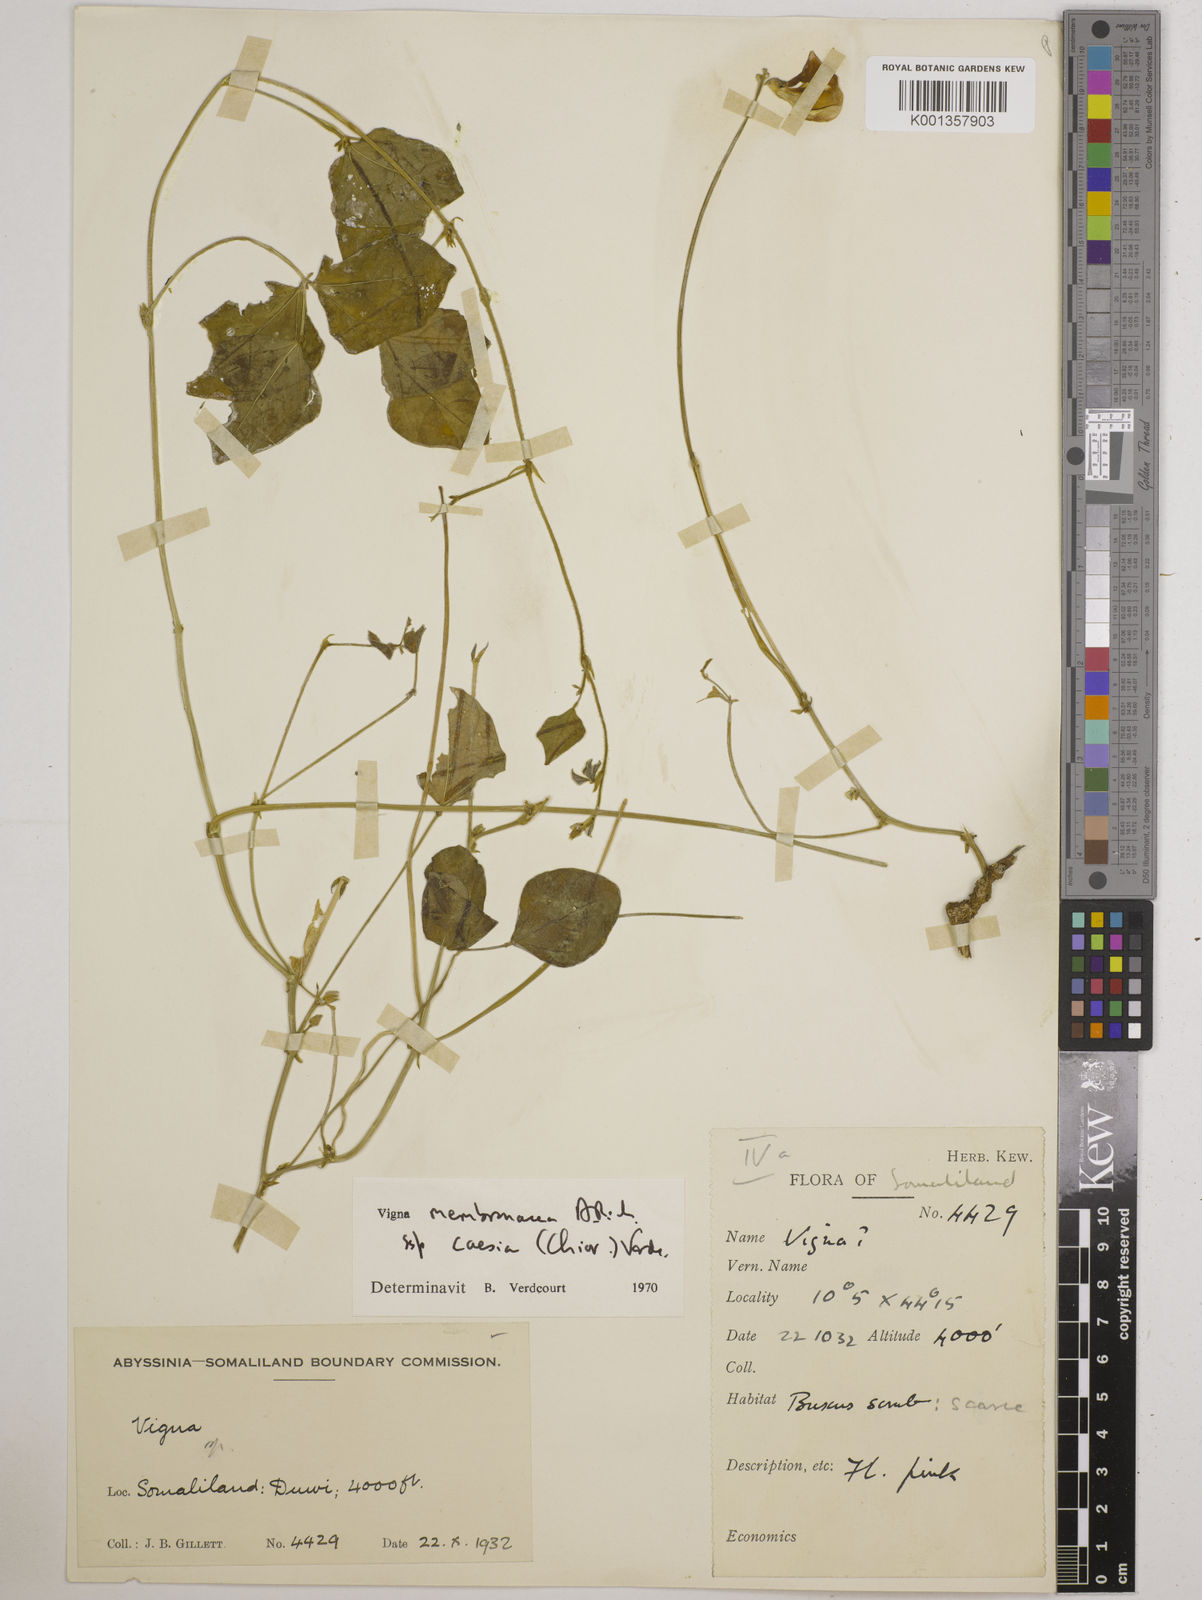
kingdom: Plantae
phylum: Tracheophyta
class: Magnoliopsida
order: Fabales
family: Fabaceae
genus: Vigna
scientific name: Vigna
